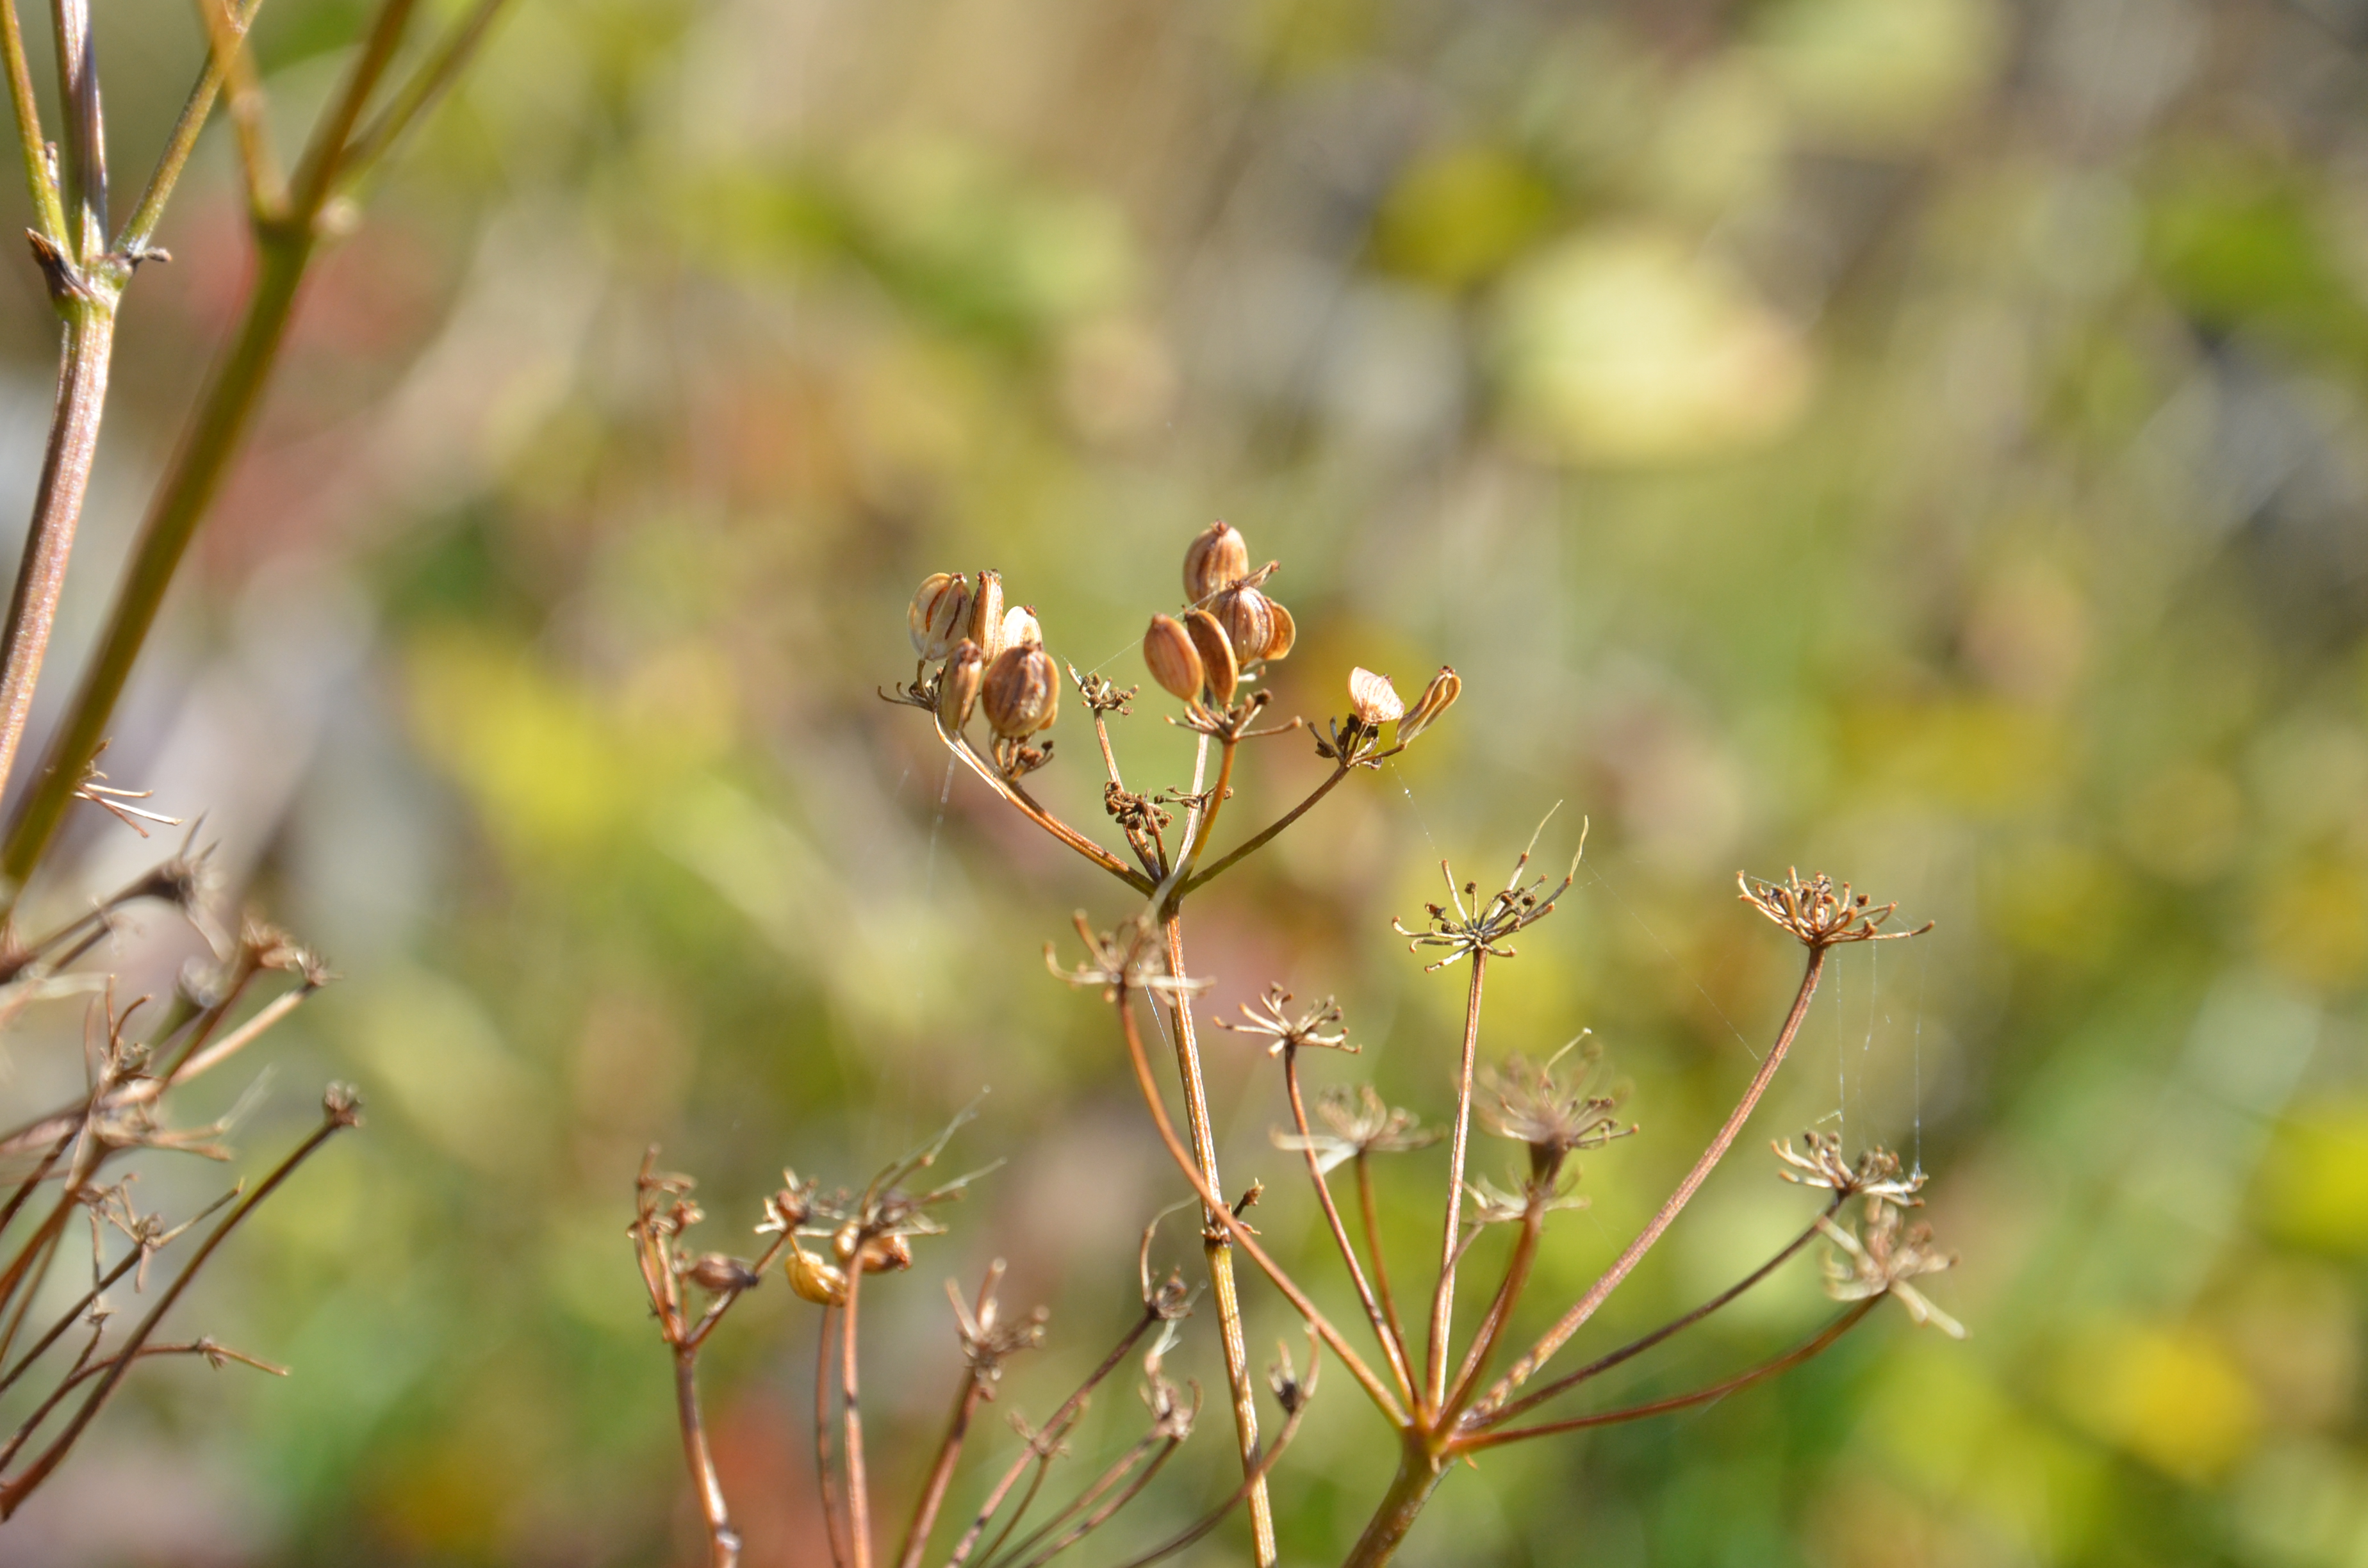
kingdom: Plantae
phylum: Tracheophyta
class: Magnoliopsida
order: Apiales
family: Apiaceae
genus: Pastinaca
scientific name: Pastinaca sativa
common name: Wild parsnip
